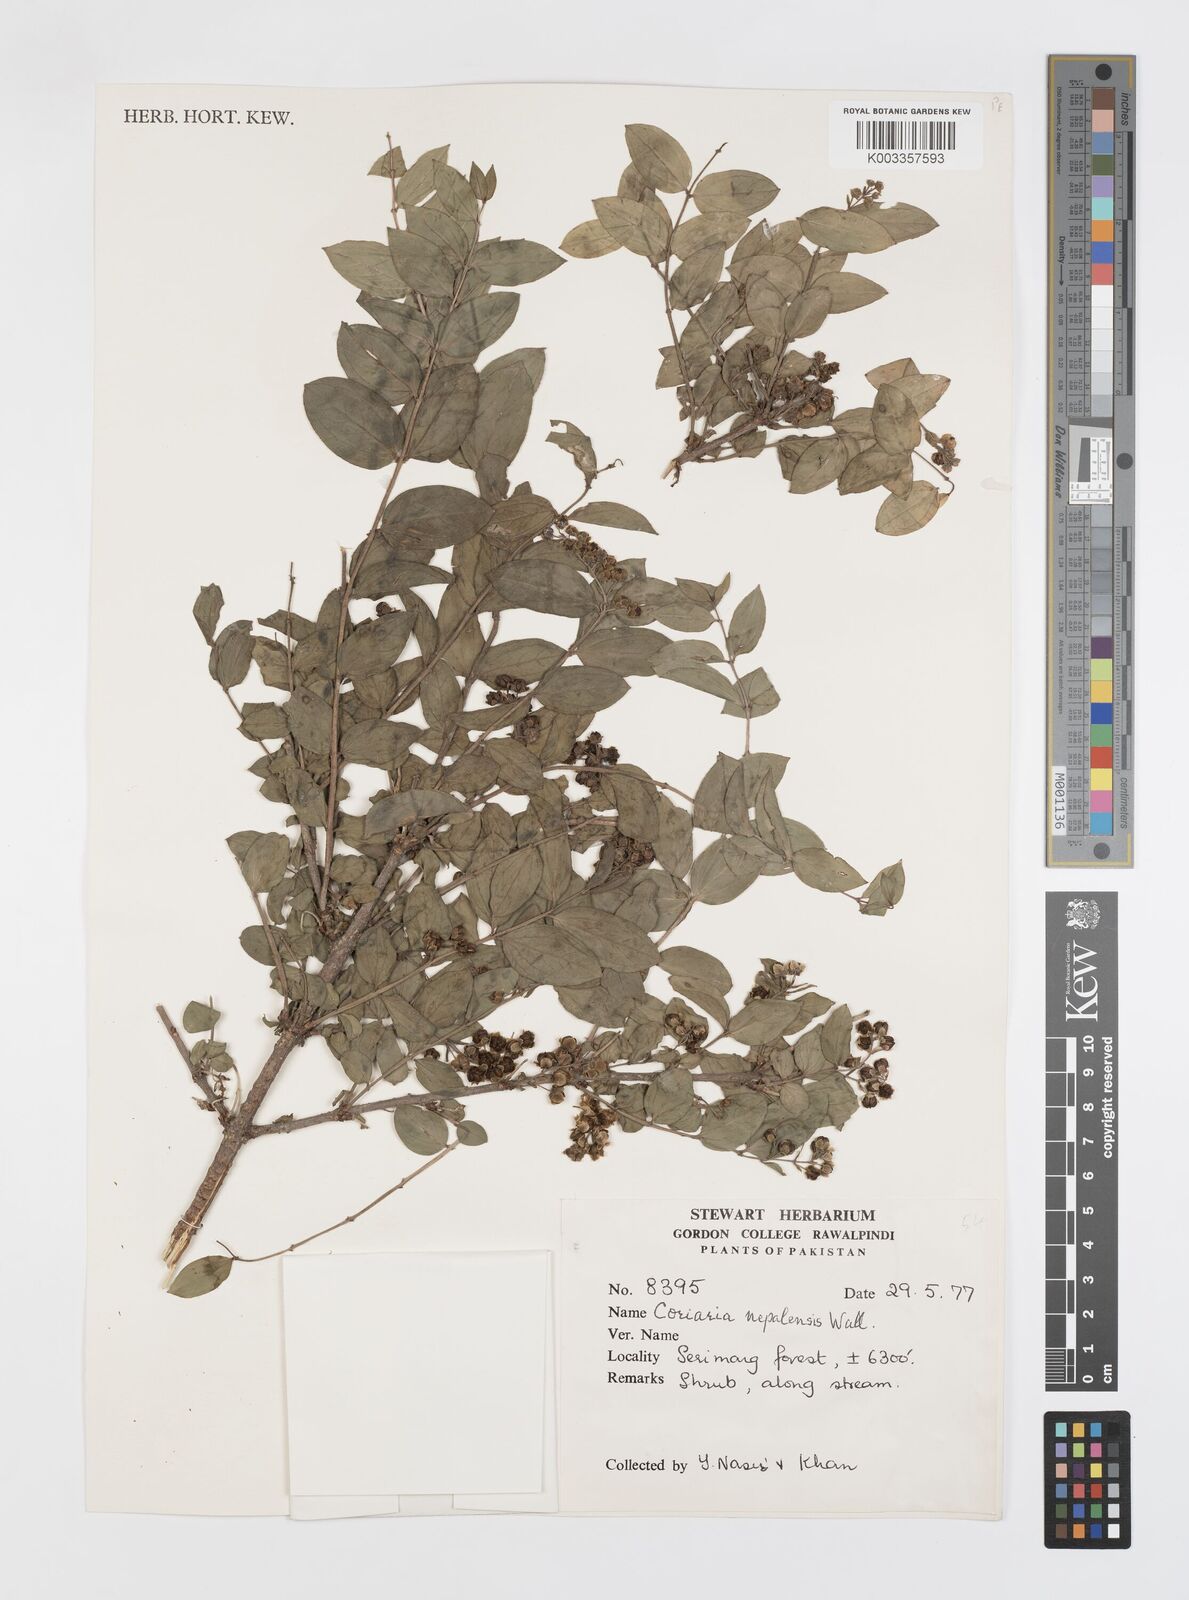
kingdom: Plantae
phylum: Tracheophyta
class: Magnoliopsida
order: Cucurbitales
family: Coriariaceae
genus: Coriaria
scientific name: Coriaria napalensis
